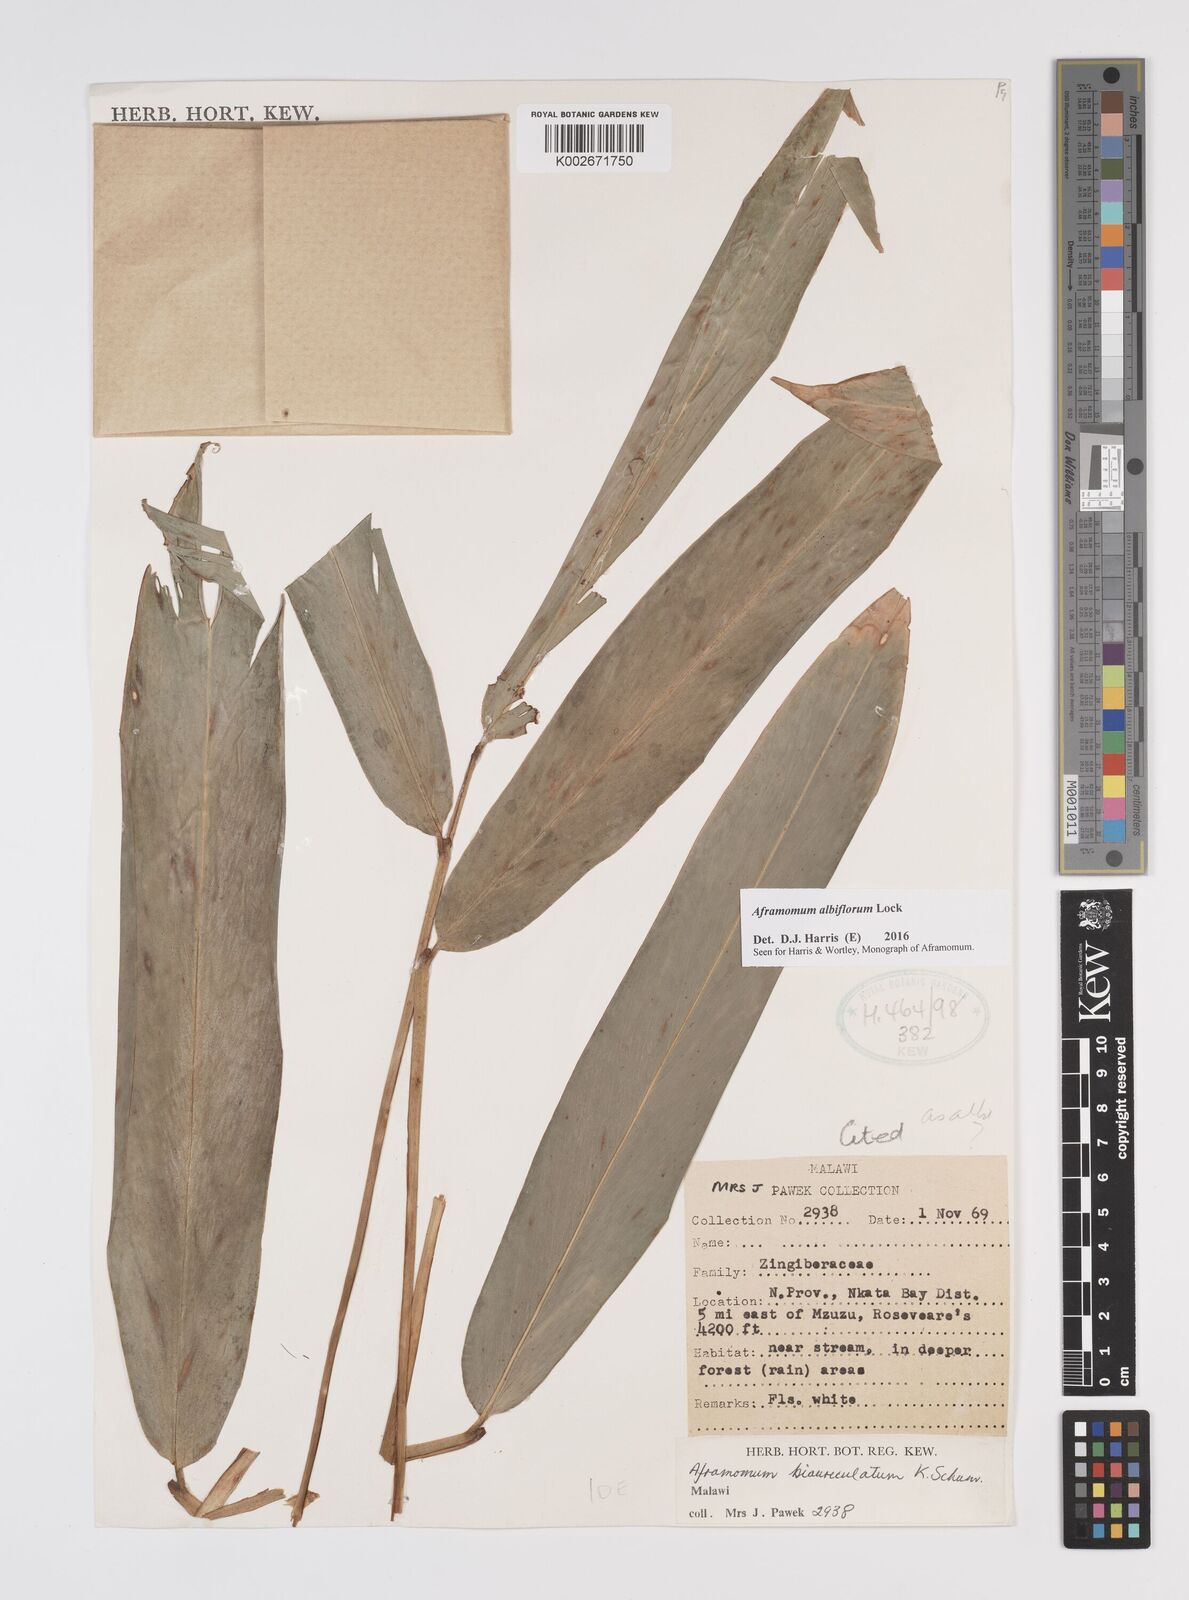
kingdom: Plantae
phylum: Tracheophyta
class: Liliopsida
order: Zingiberales
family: Zingiberaceae
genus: Aframomum
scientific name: Aframomum albiflorum
